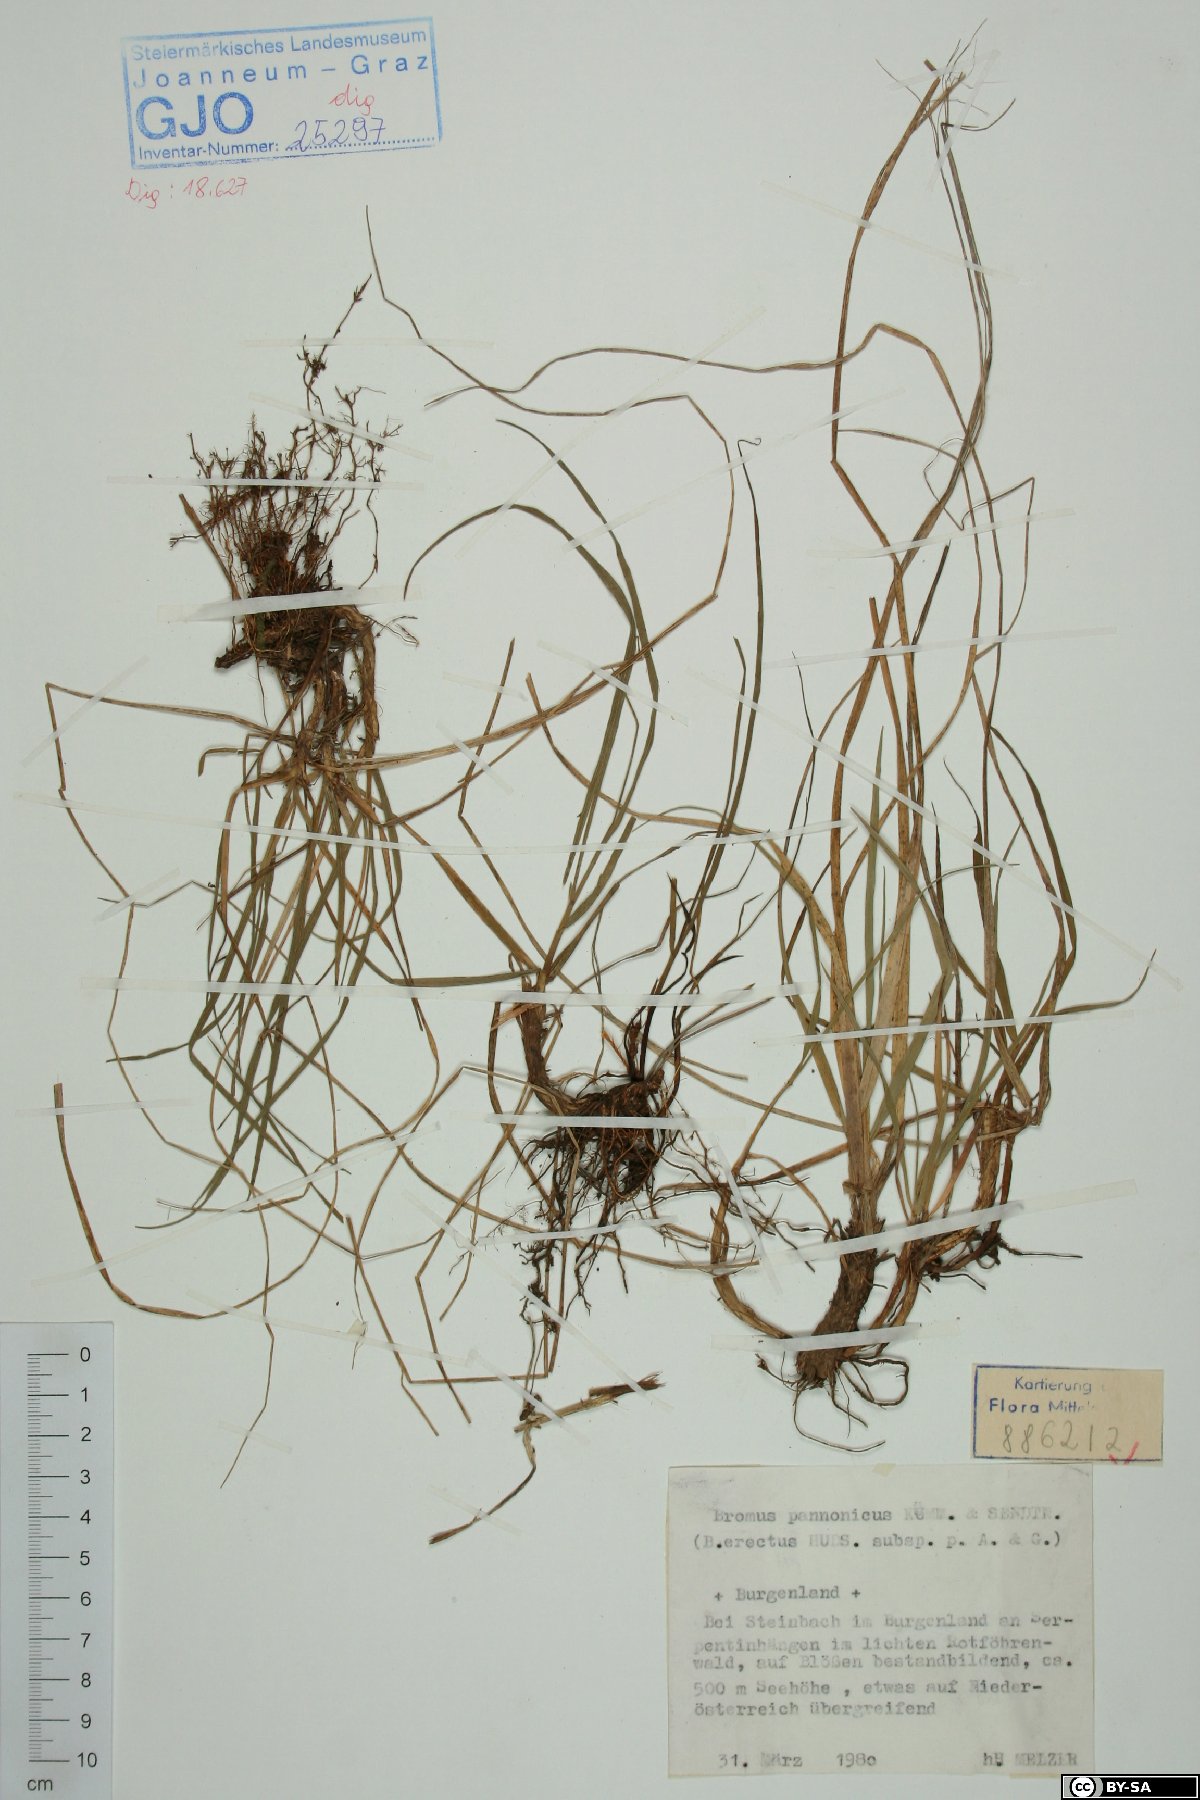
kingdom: Plantae
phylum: Tracheophyta
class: Liliopsida
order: Poales
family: Poaceae
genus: Bromus
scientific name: Bromus pannonicus
